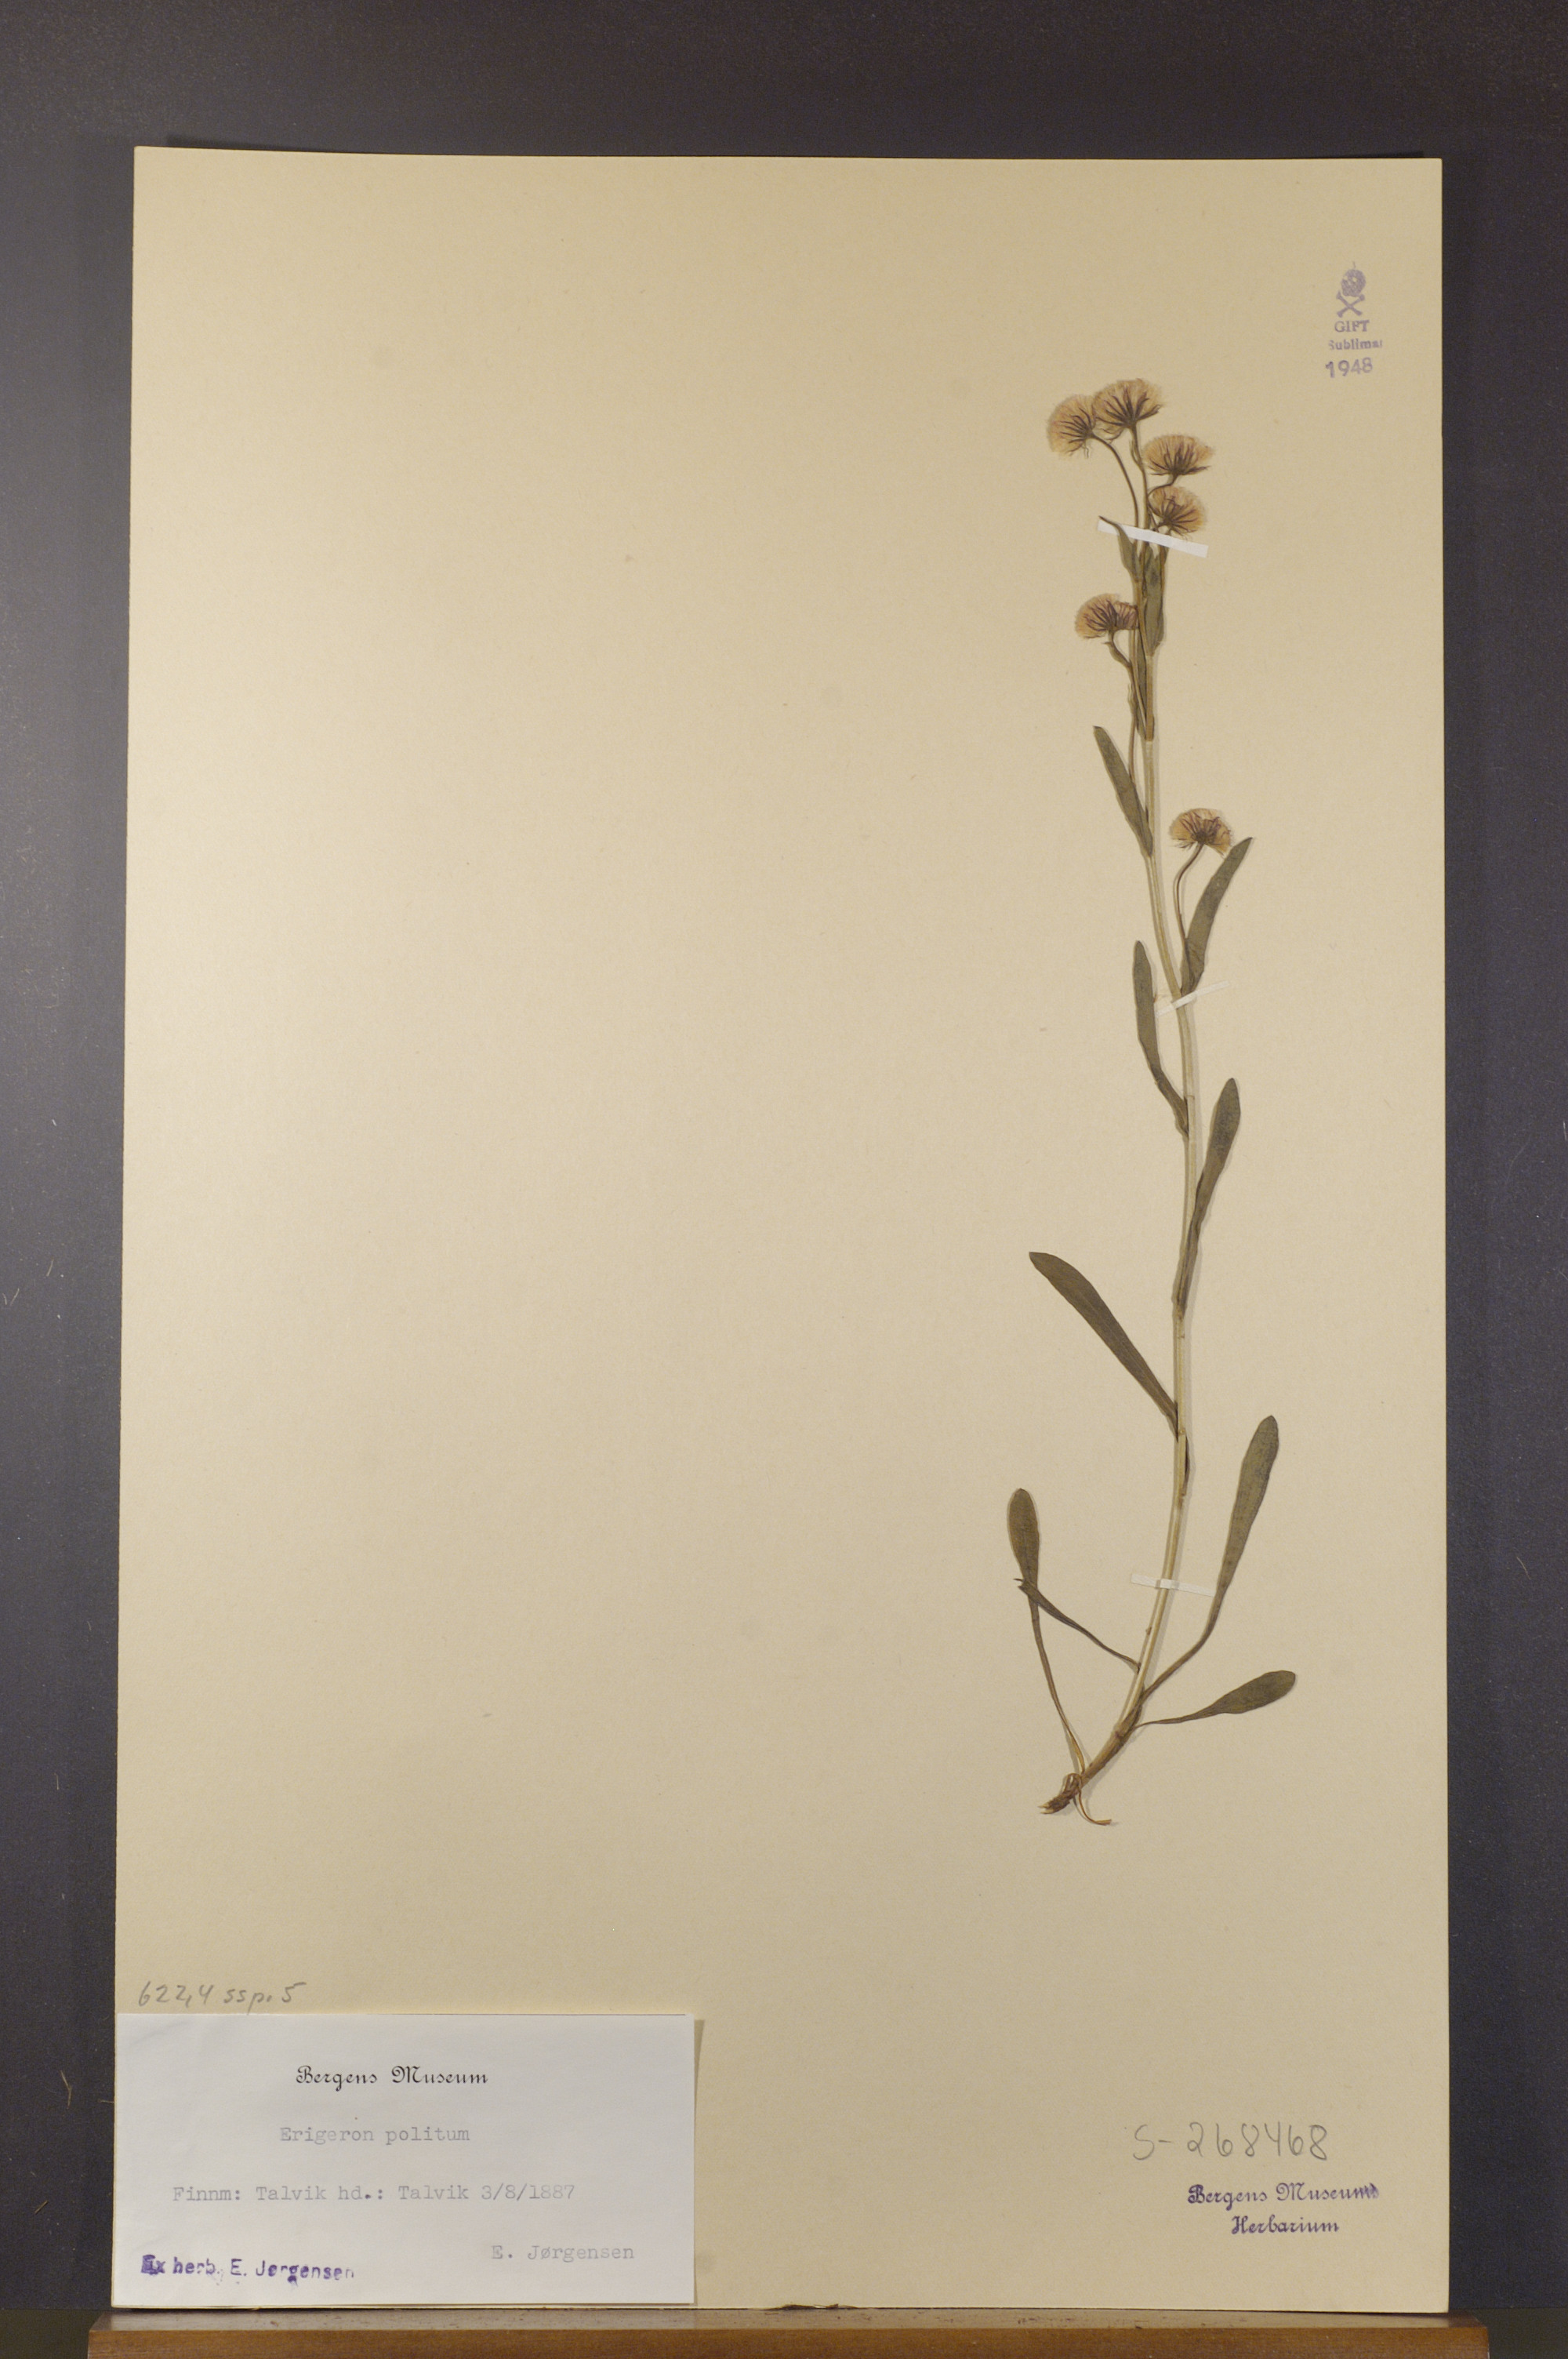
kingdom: Plantae
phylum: Tracheophyta
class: Magnoliopsida
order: Asterales
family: Asteraceae
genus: Erigeron
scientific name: Erigeron politus
